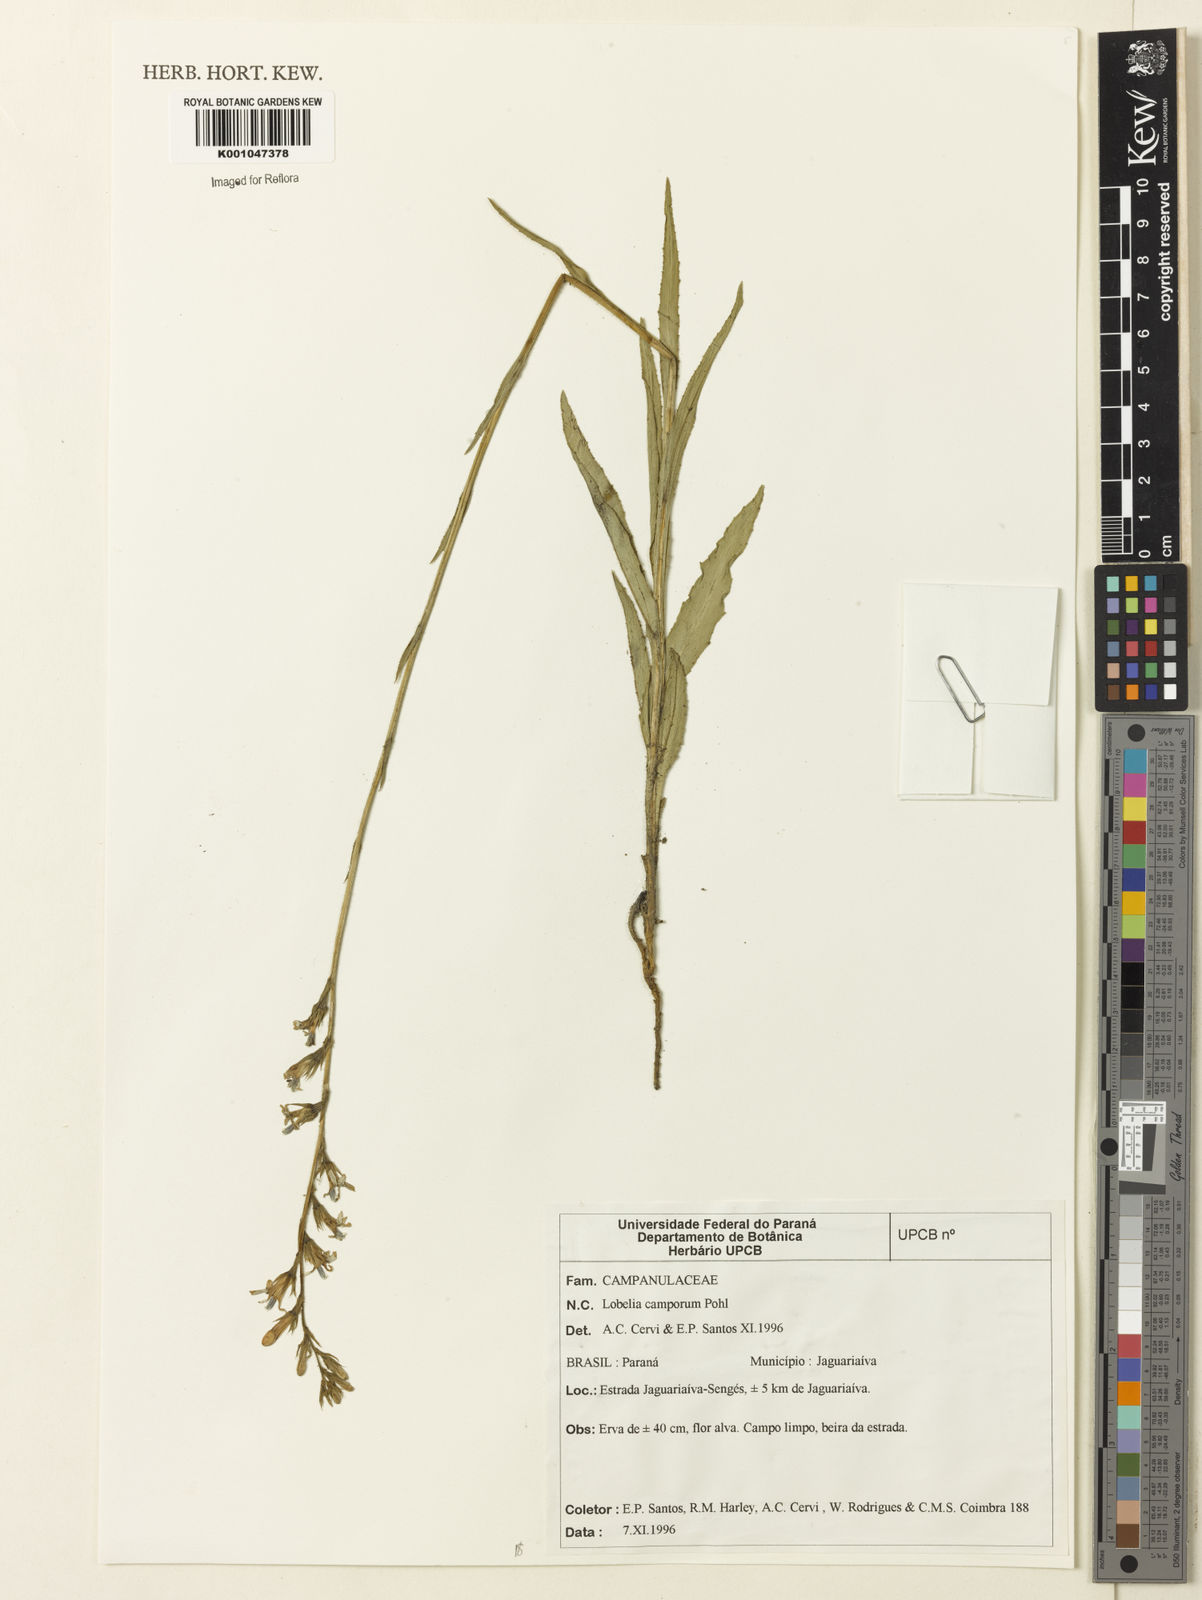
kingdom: Plantae
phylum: Tracheophyta
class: Magnoliopsida
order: Asterales
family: Campanulaceae
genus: Lobelia
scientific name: Lobelia camporum
